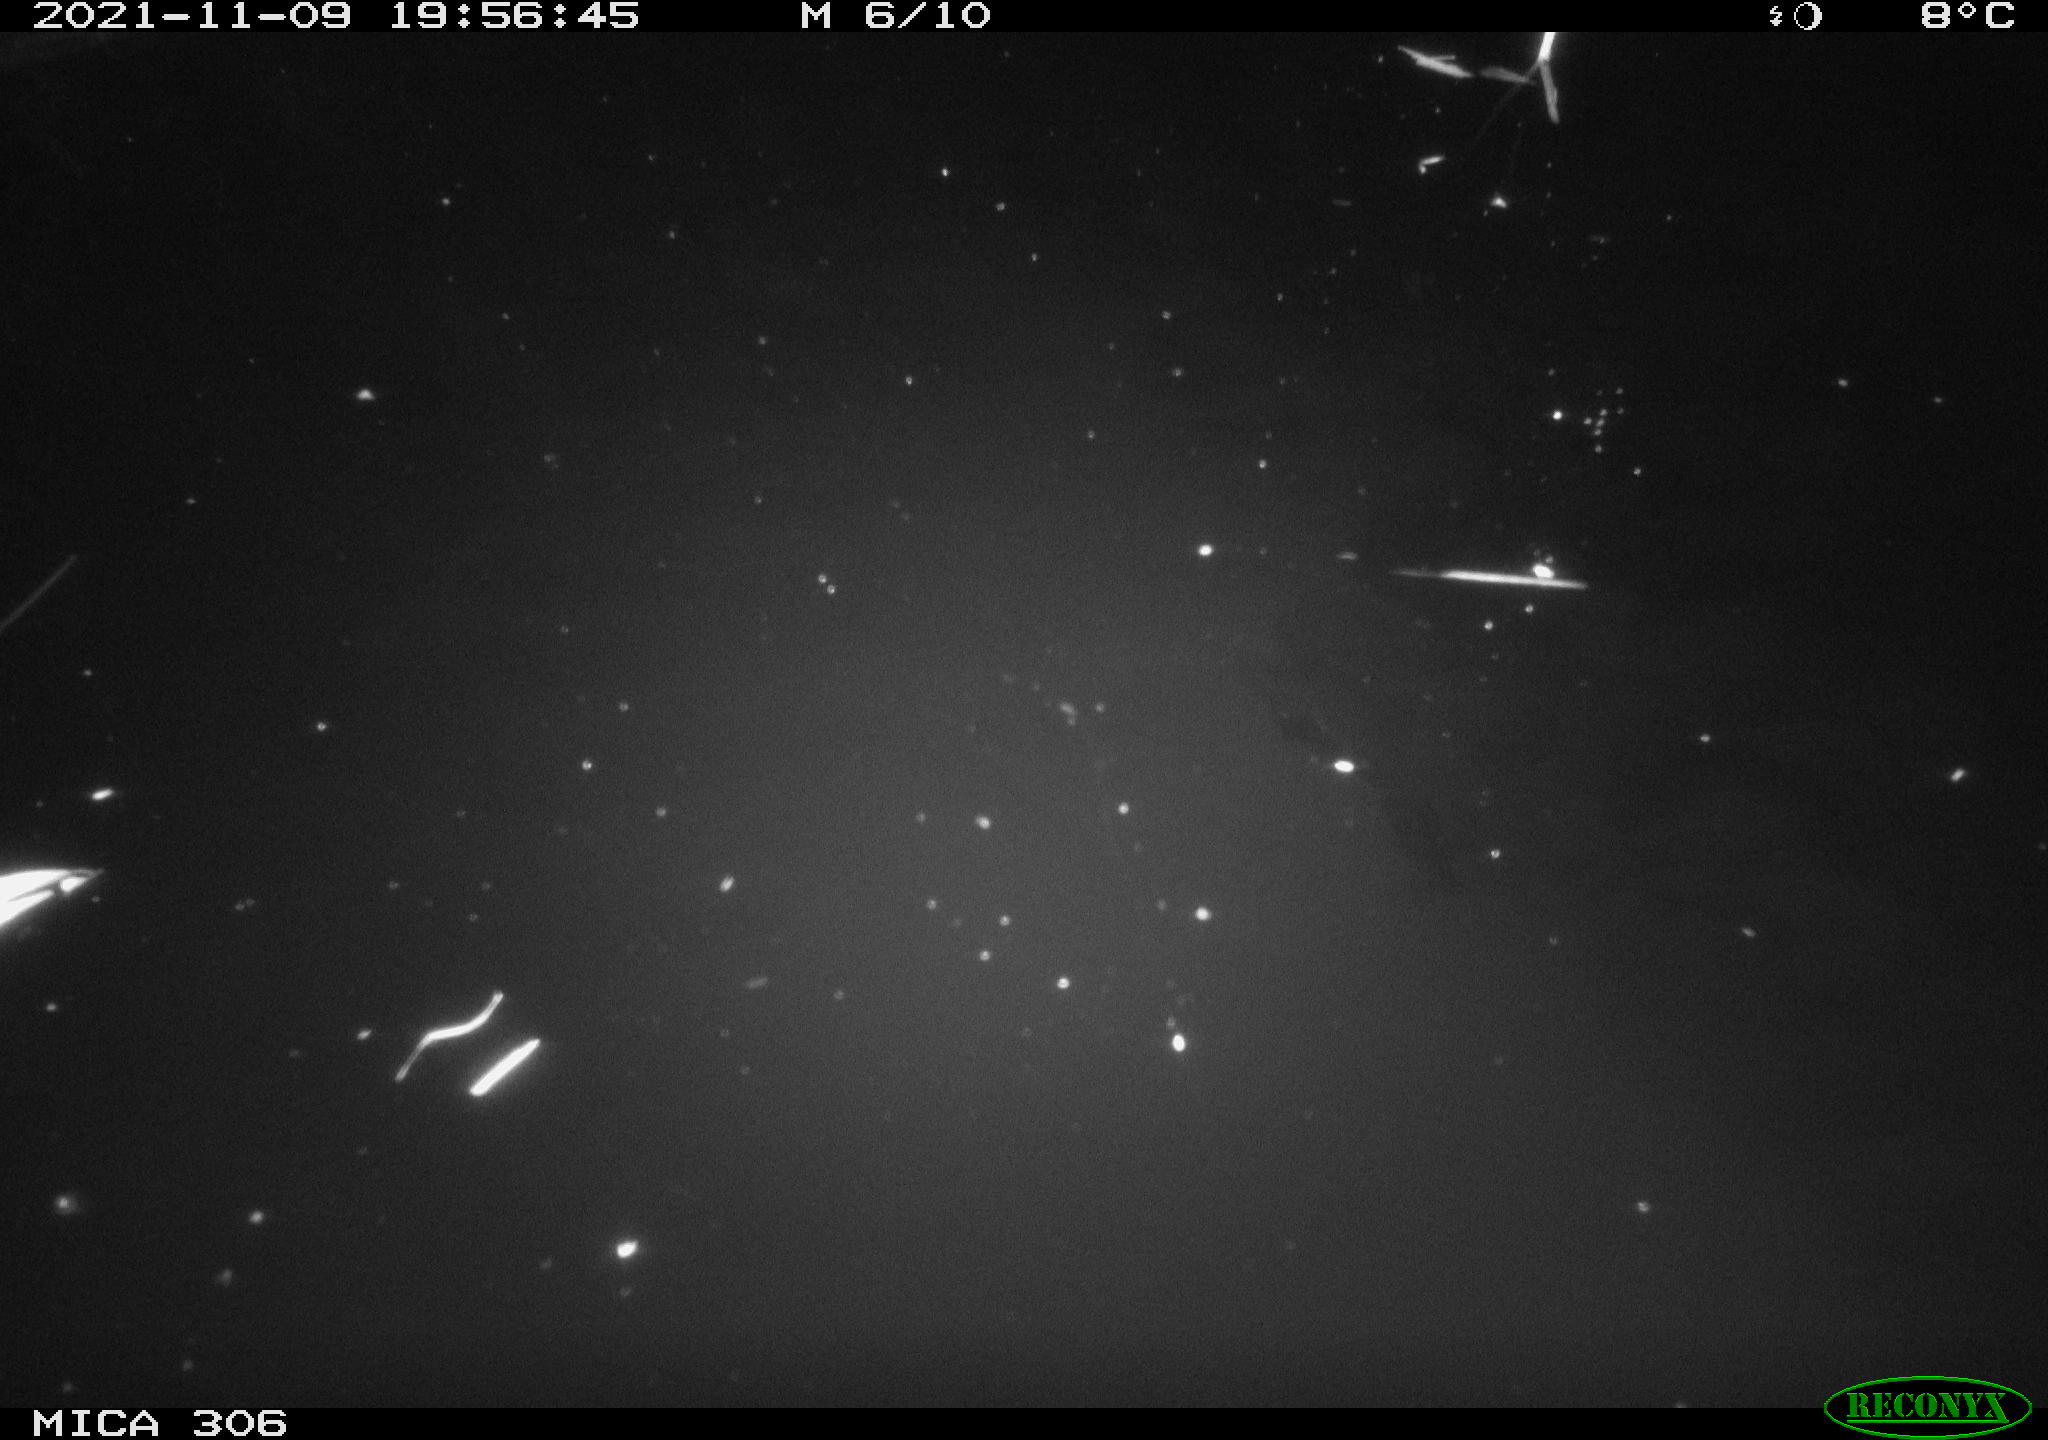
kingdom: Animalia
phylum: Chordata
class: Mammalia
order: Rodentia
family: Cricetidae
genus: Ondatra
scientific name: Ondatra zibethicus
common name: Muskrat
